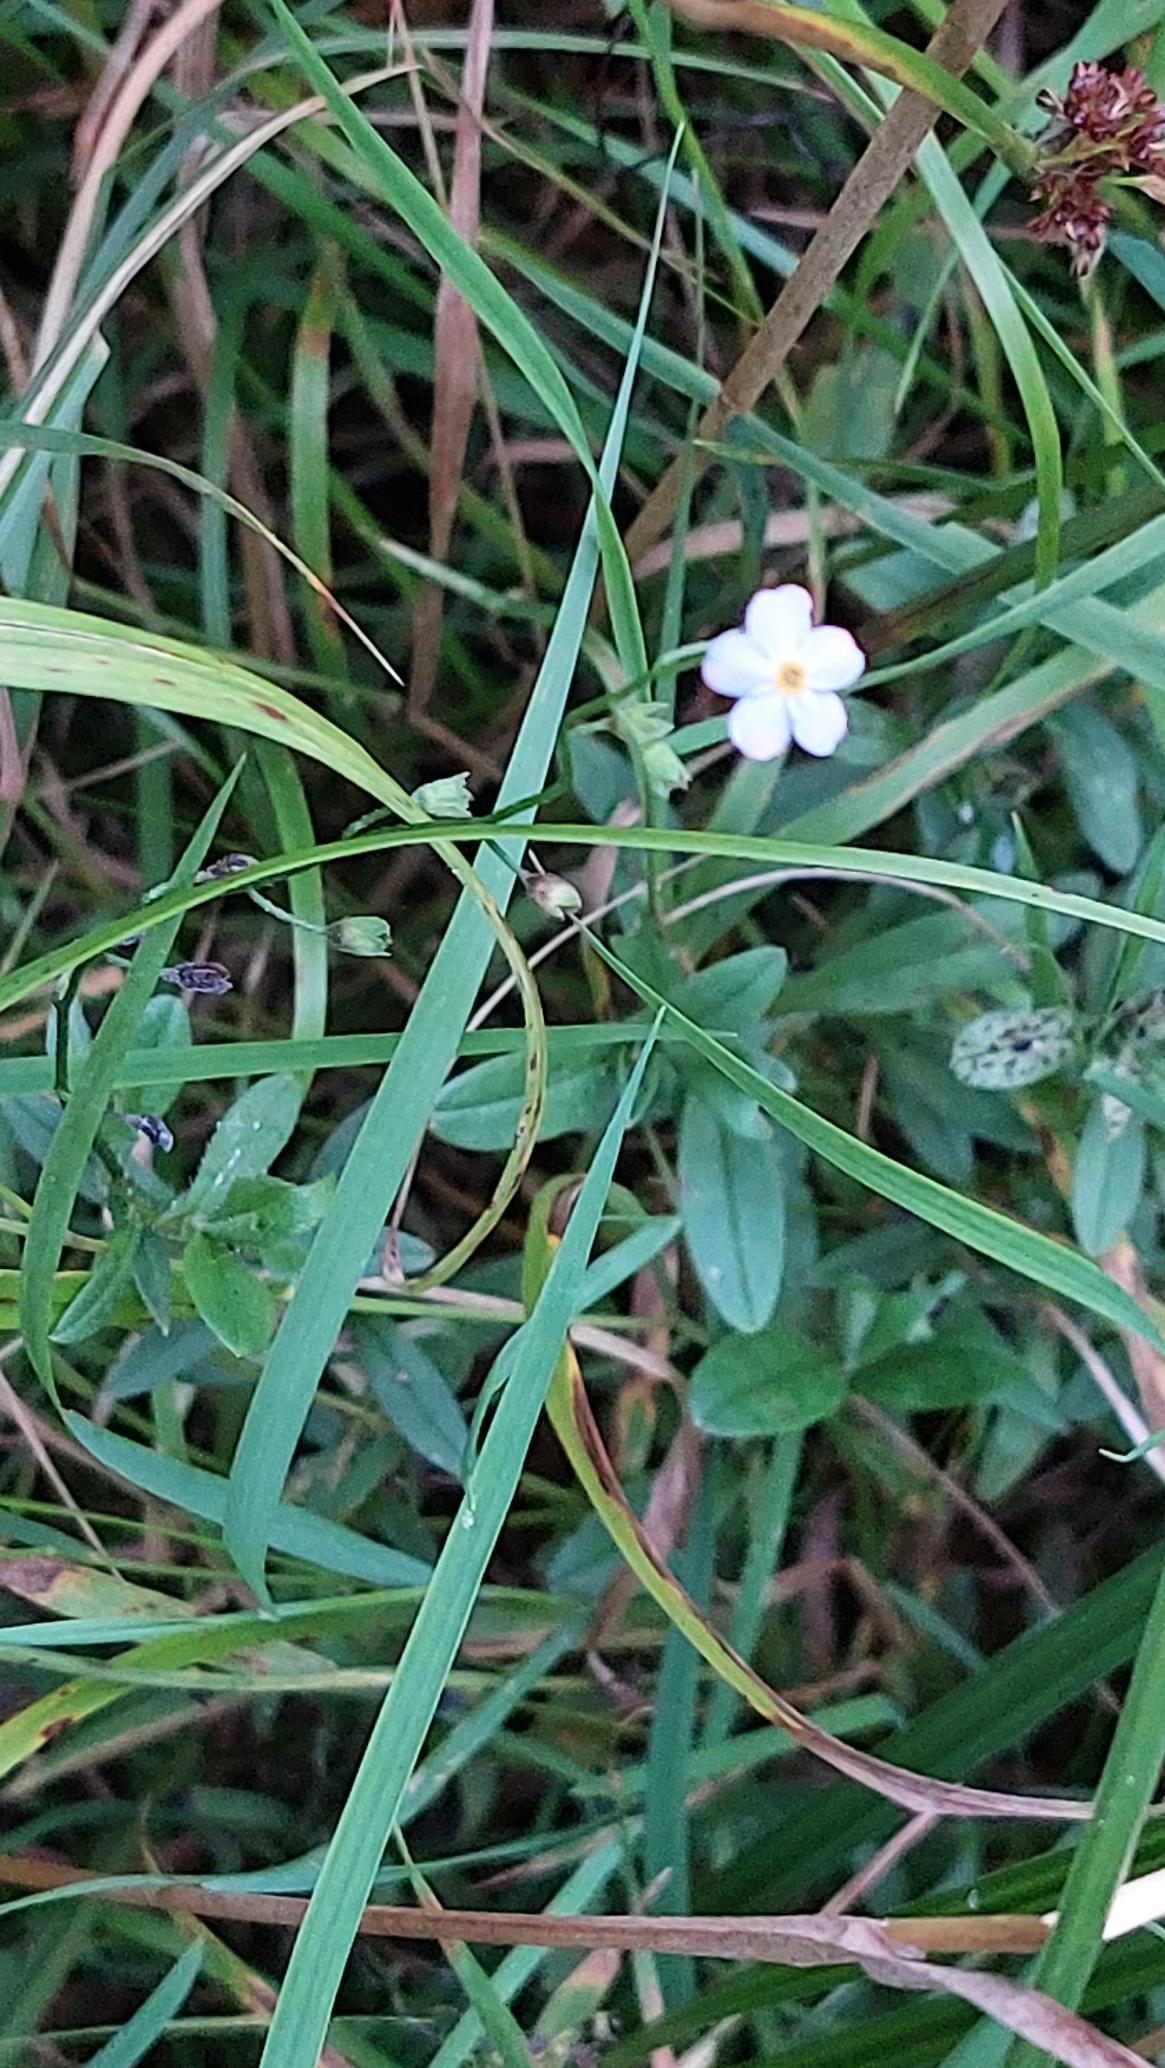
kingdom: Plantae
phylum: Tracheophyta
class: Magnoliopsida
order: Boraginales
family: Boraginaceae
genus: Myosotis
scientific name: Myosotis scorpioides
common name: Eng-forglemmigej
